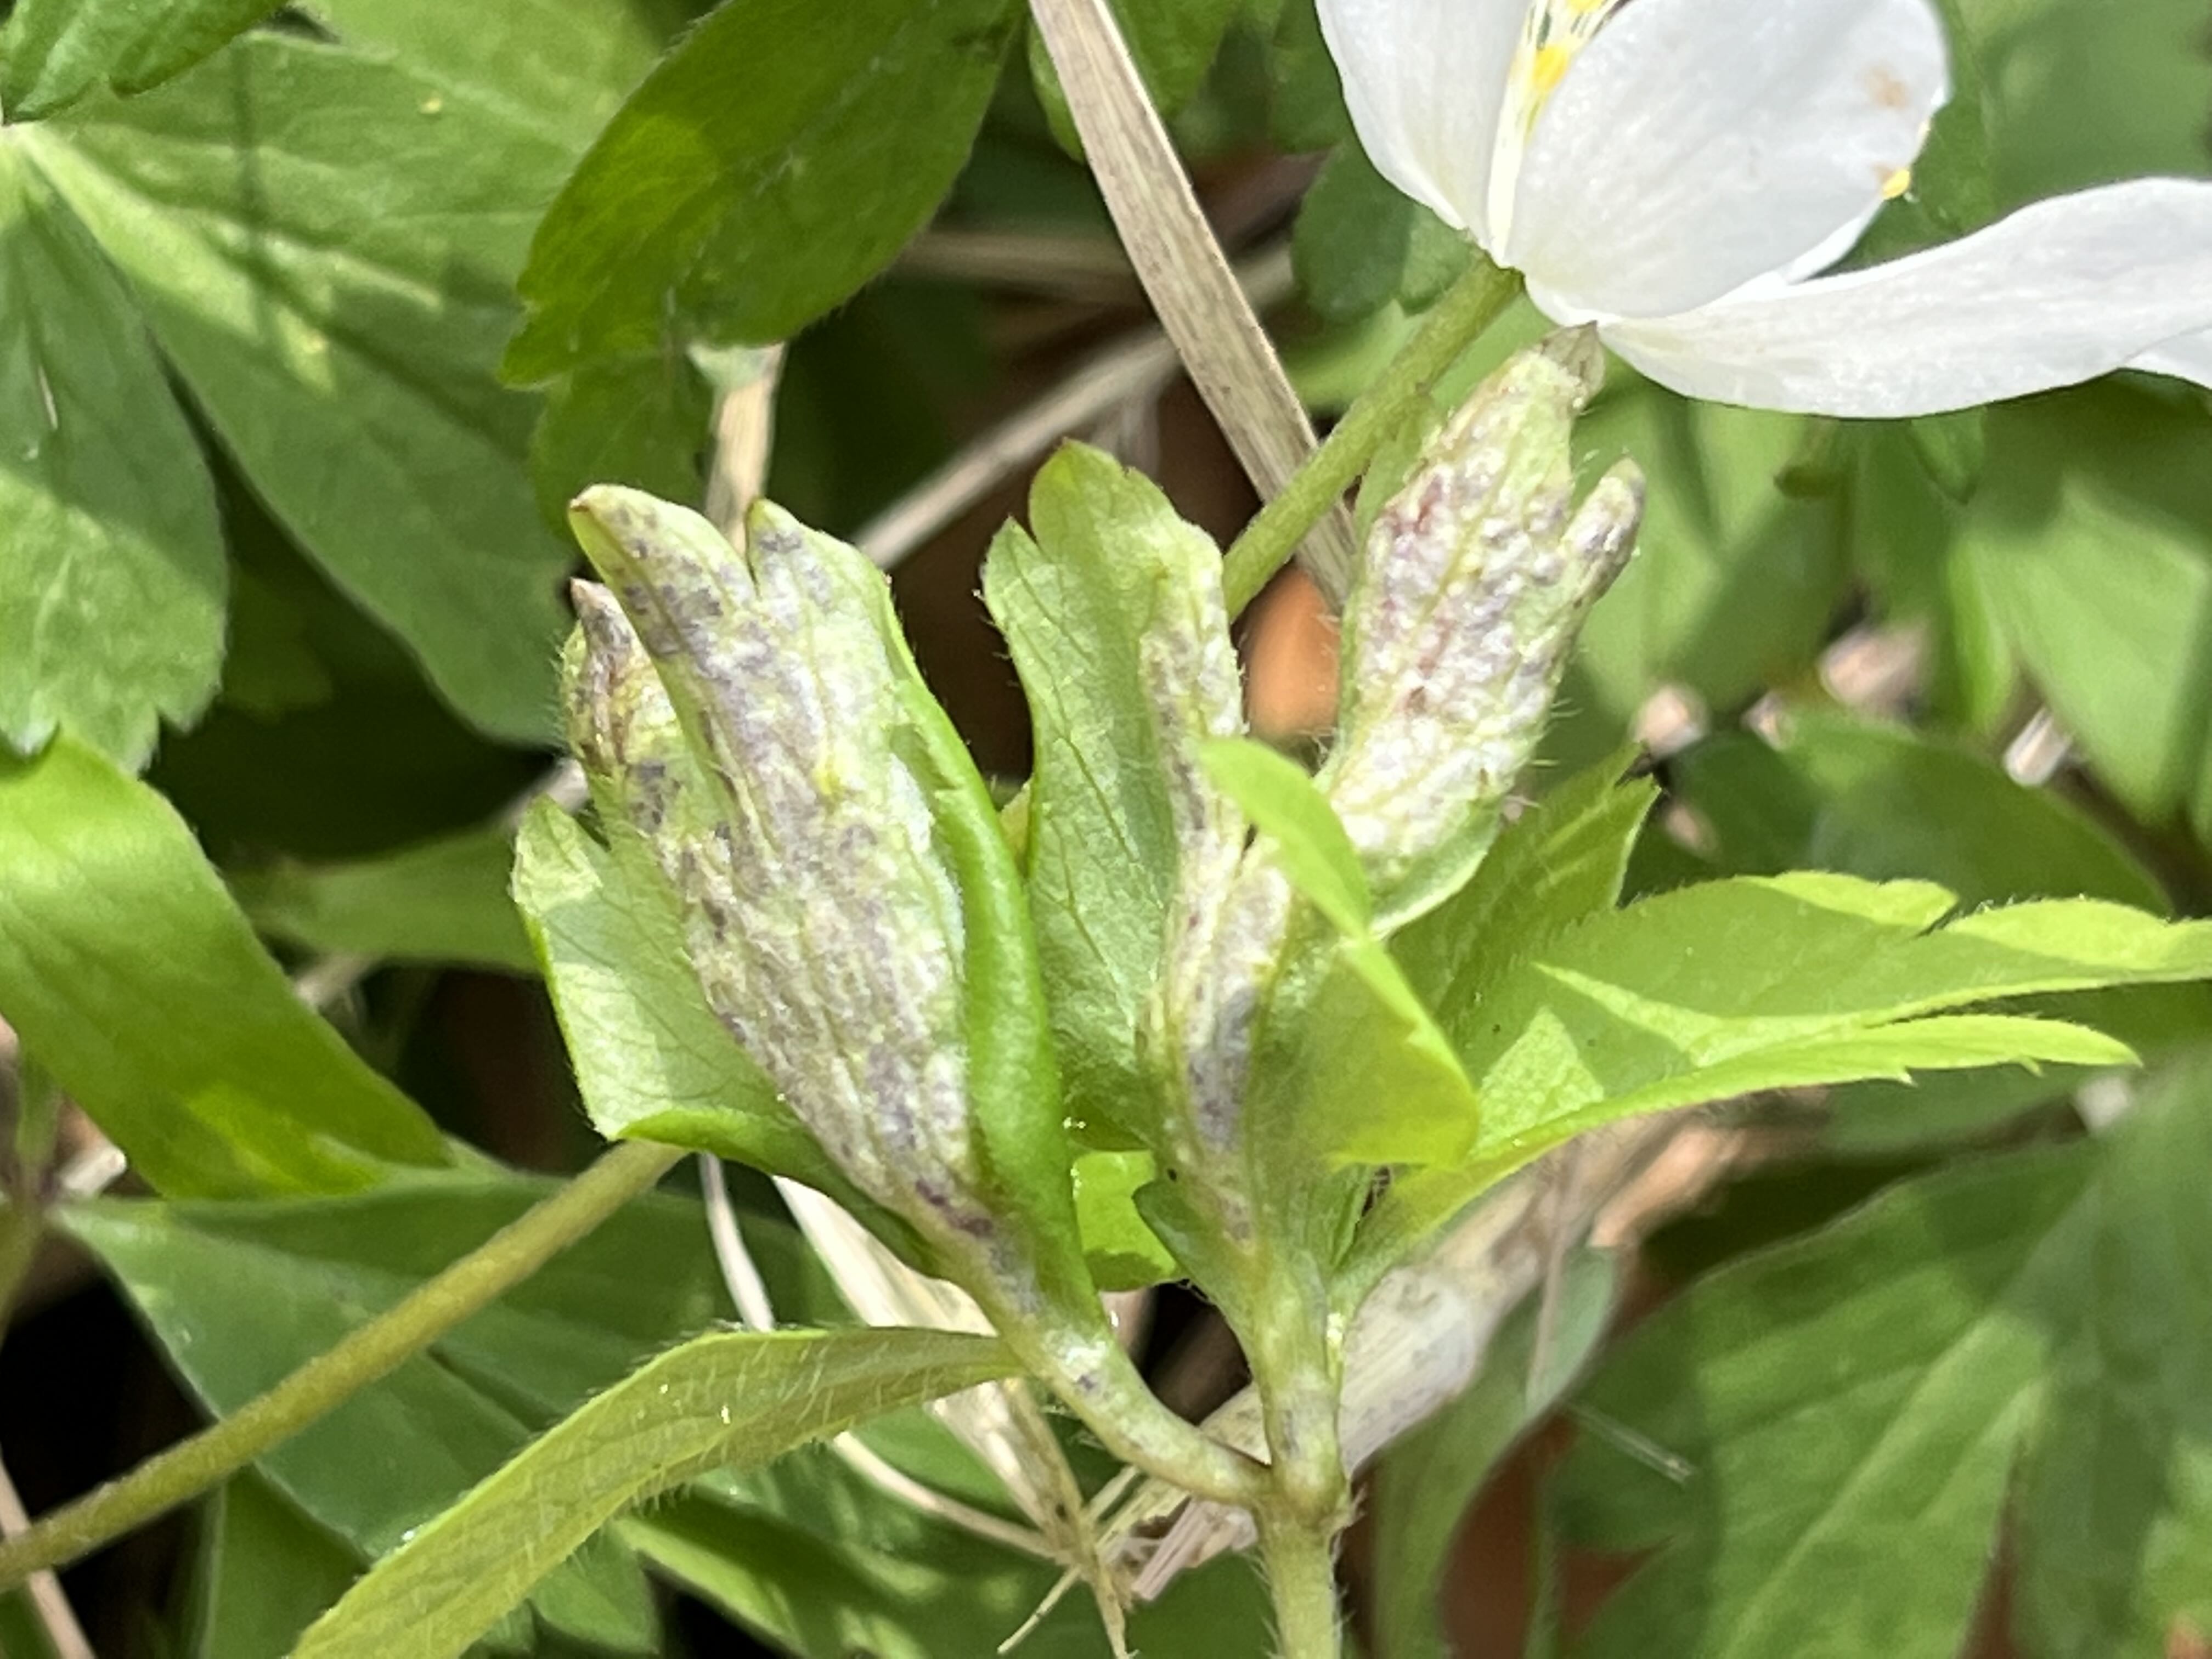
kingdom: Fungi
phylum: Basidiomycota
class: Ustilaginomycetes
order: Urocystidales
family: Urocystidaceae
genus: Urocystis
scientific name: Urocystis anemones
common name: anemone-brand
